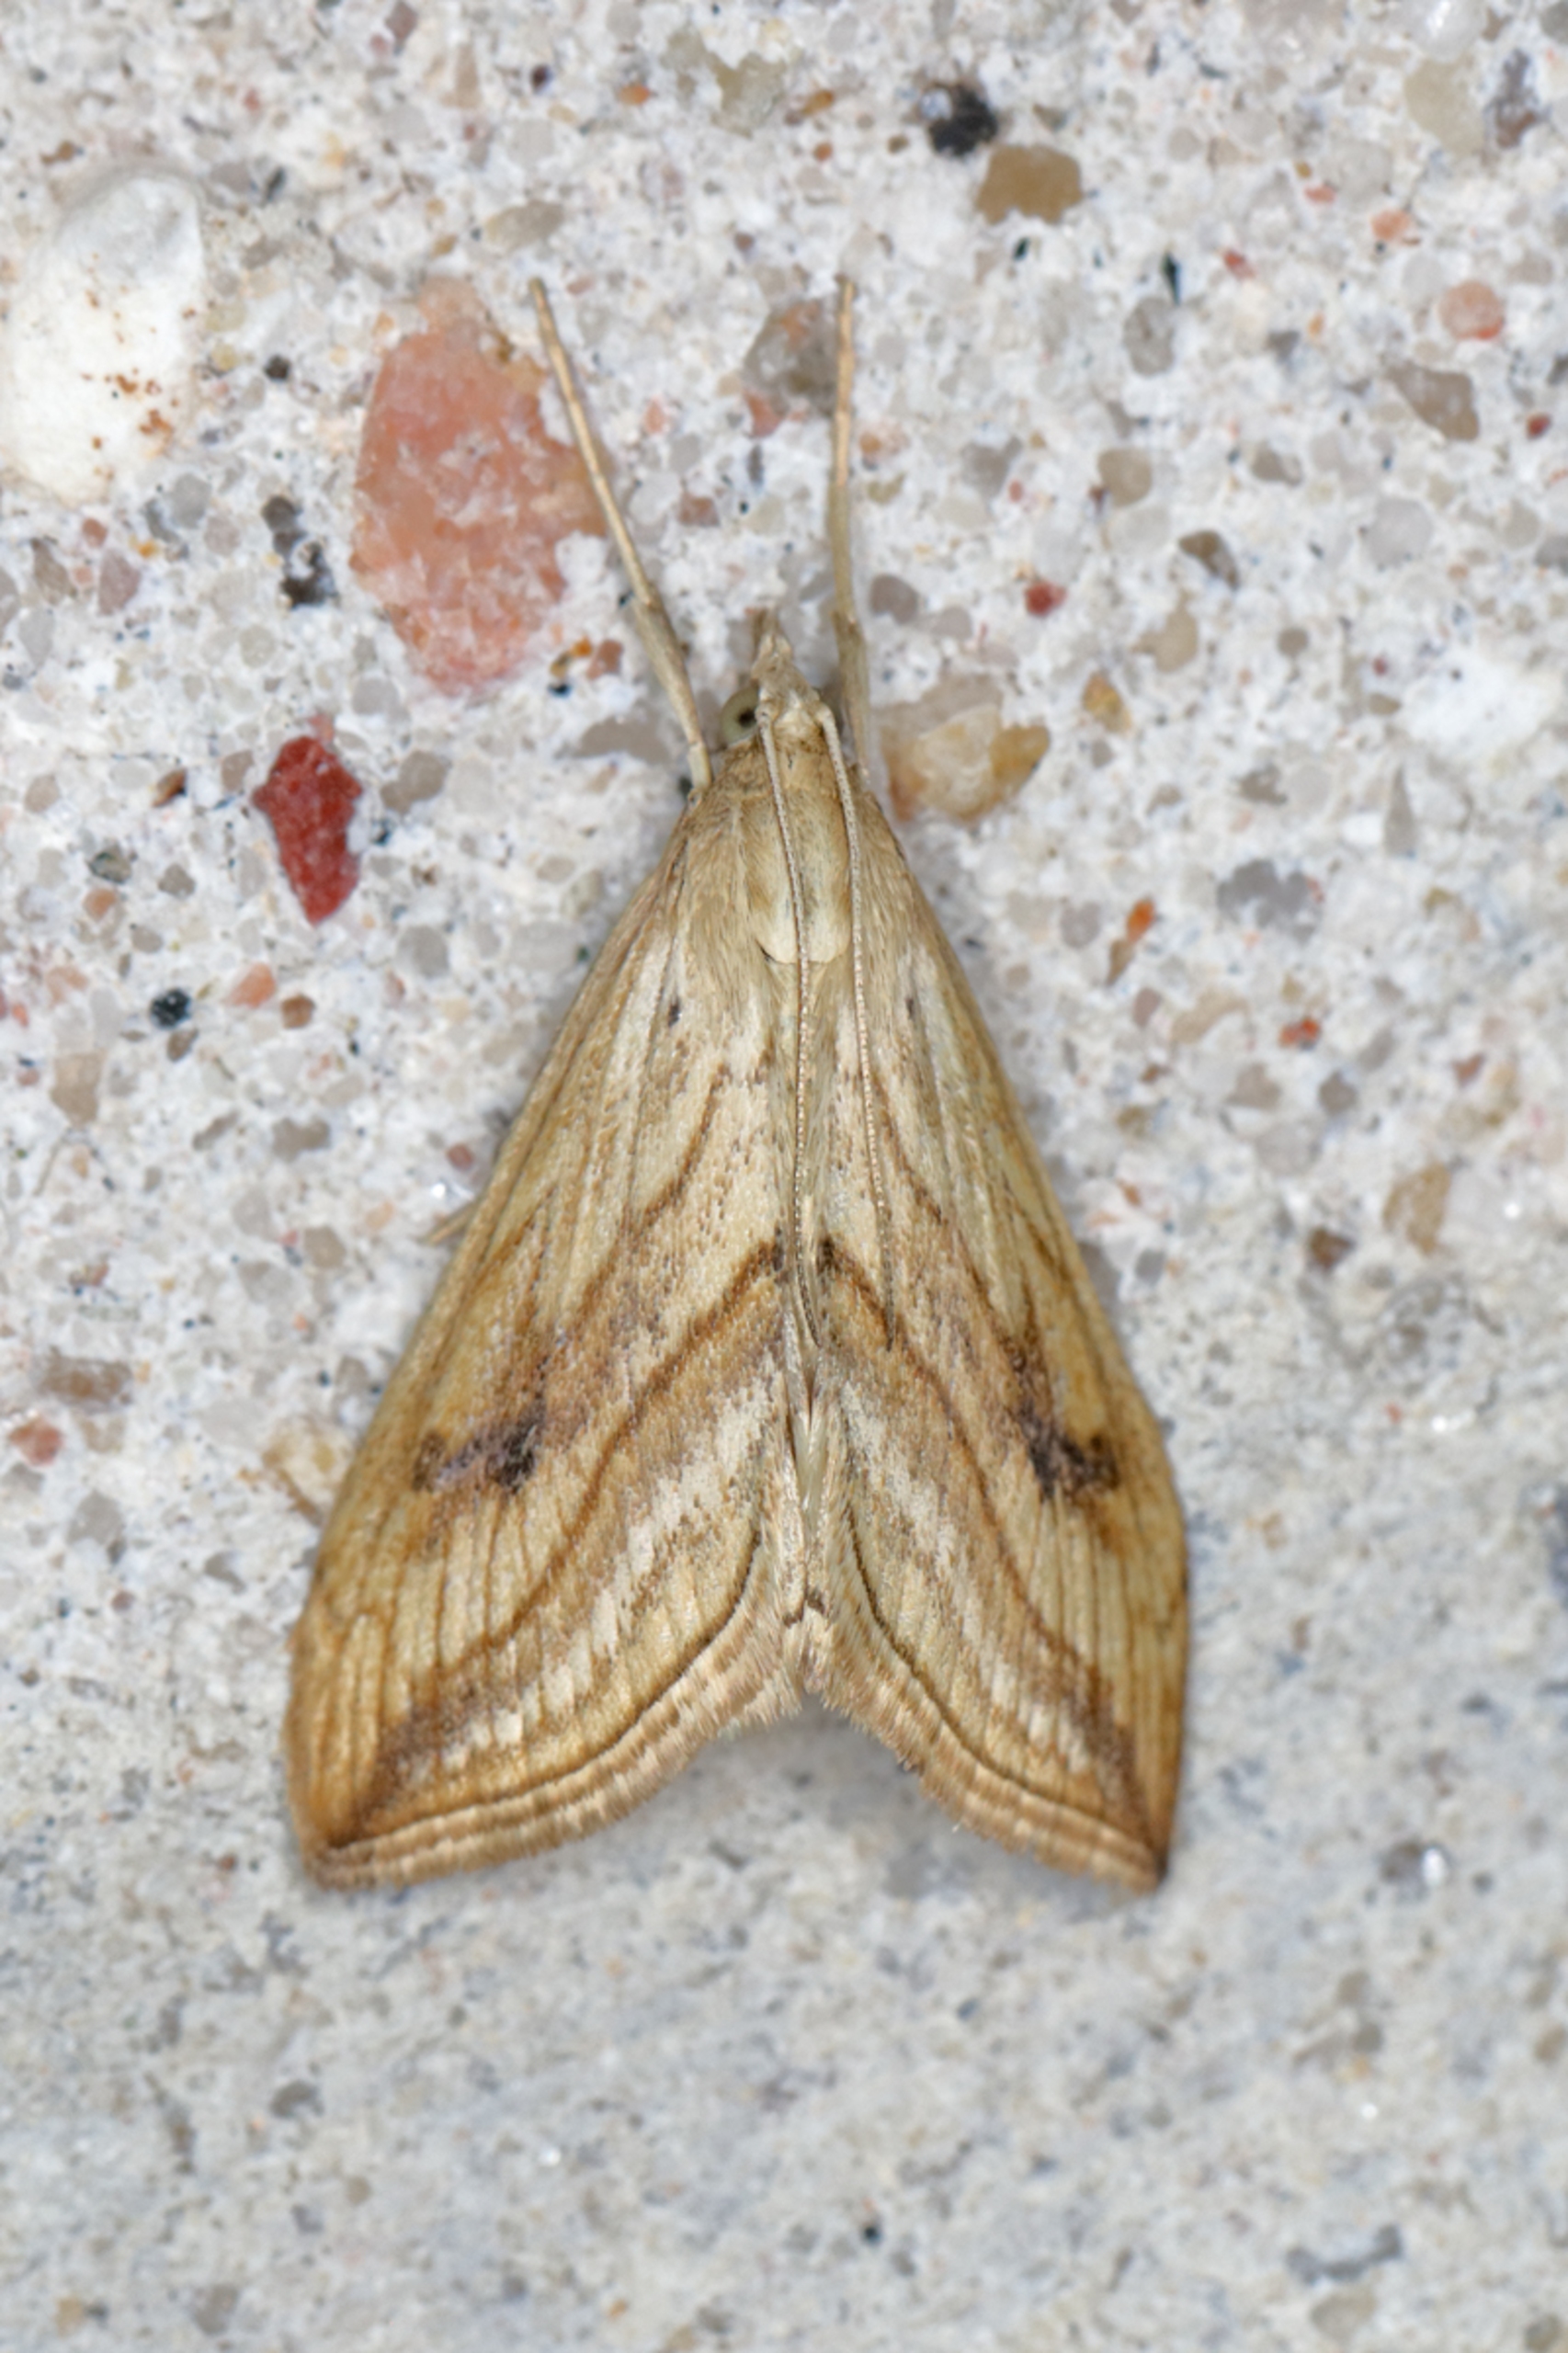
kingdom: Animalia
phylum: Arthropoda
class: Insecta
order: Lepidoptera
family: Crambidae
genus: Evergestis
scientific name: Evergestis forficalis
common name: Kålhalvmøl
